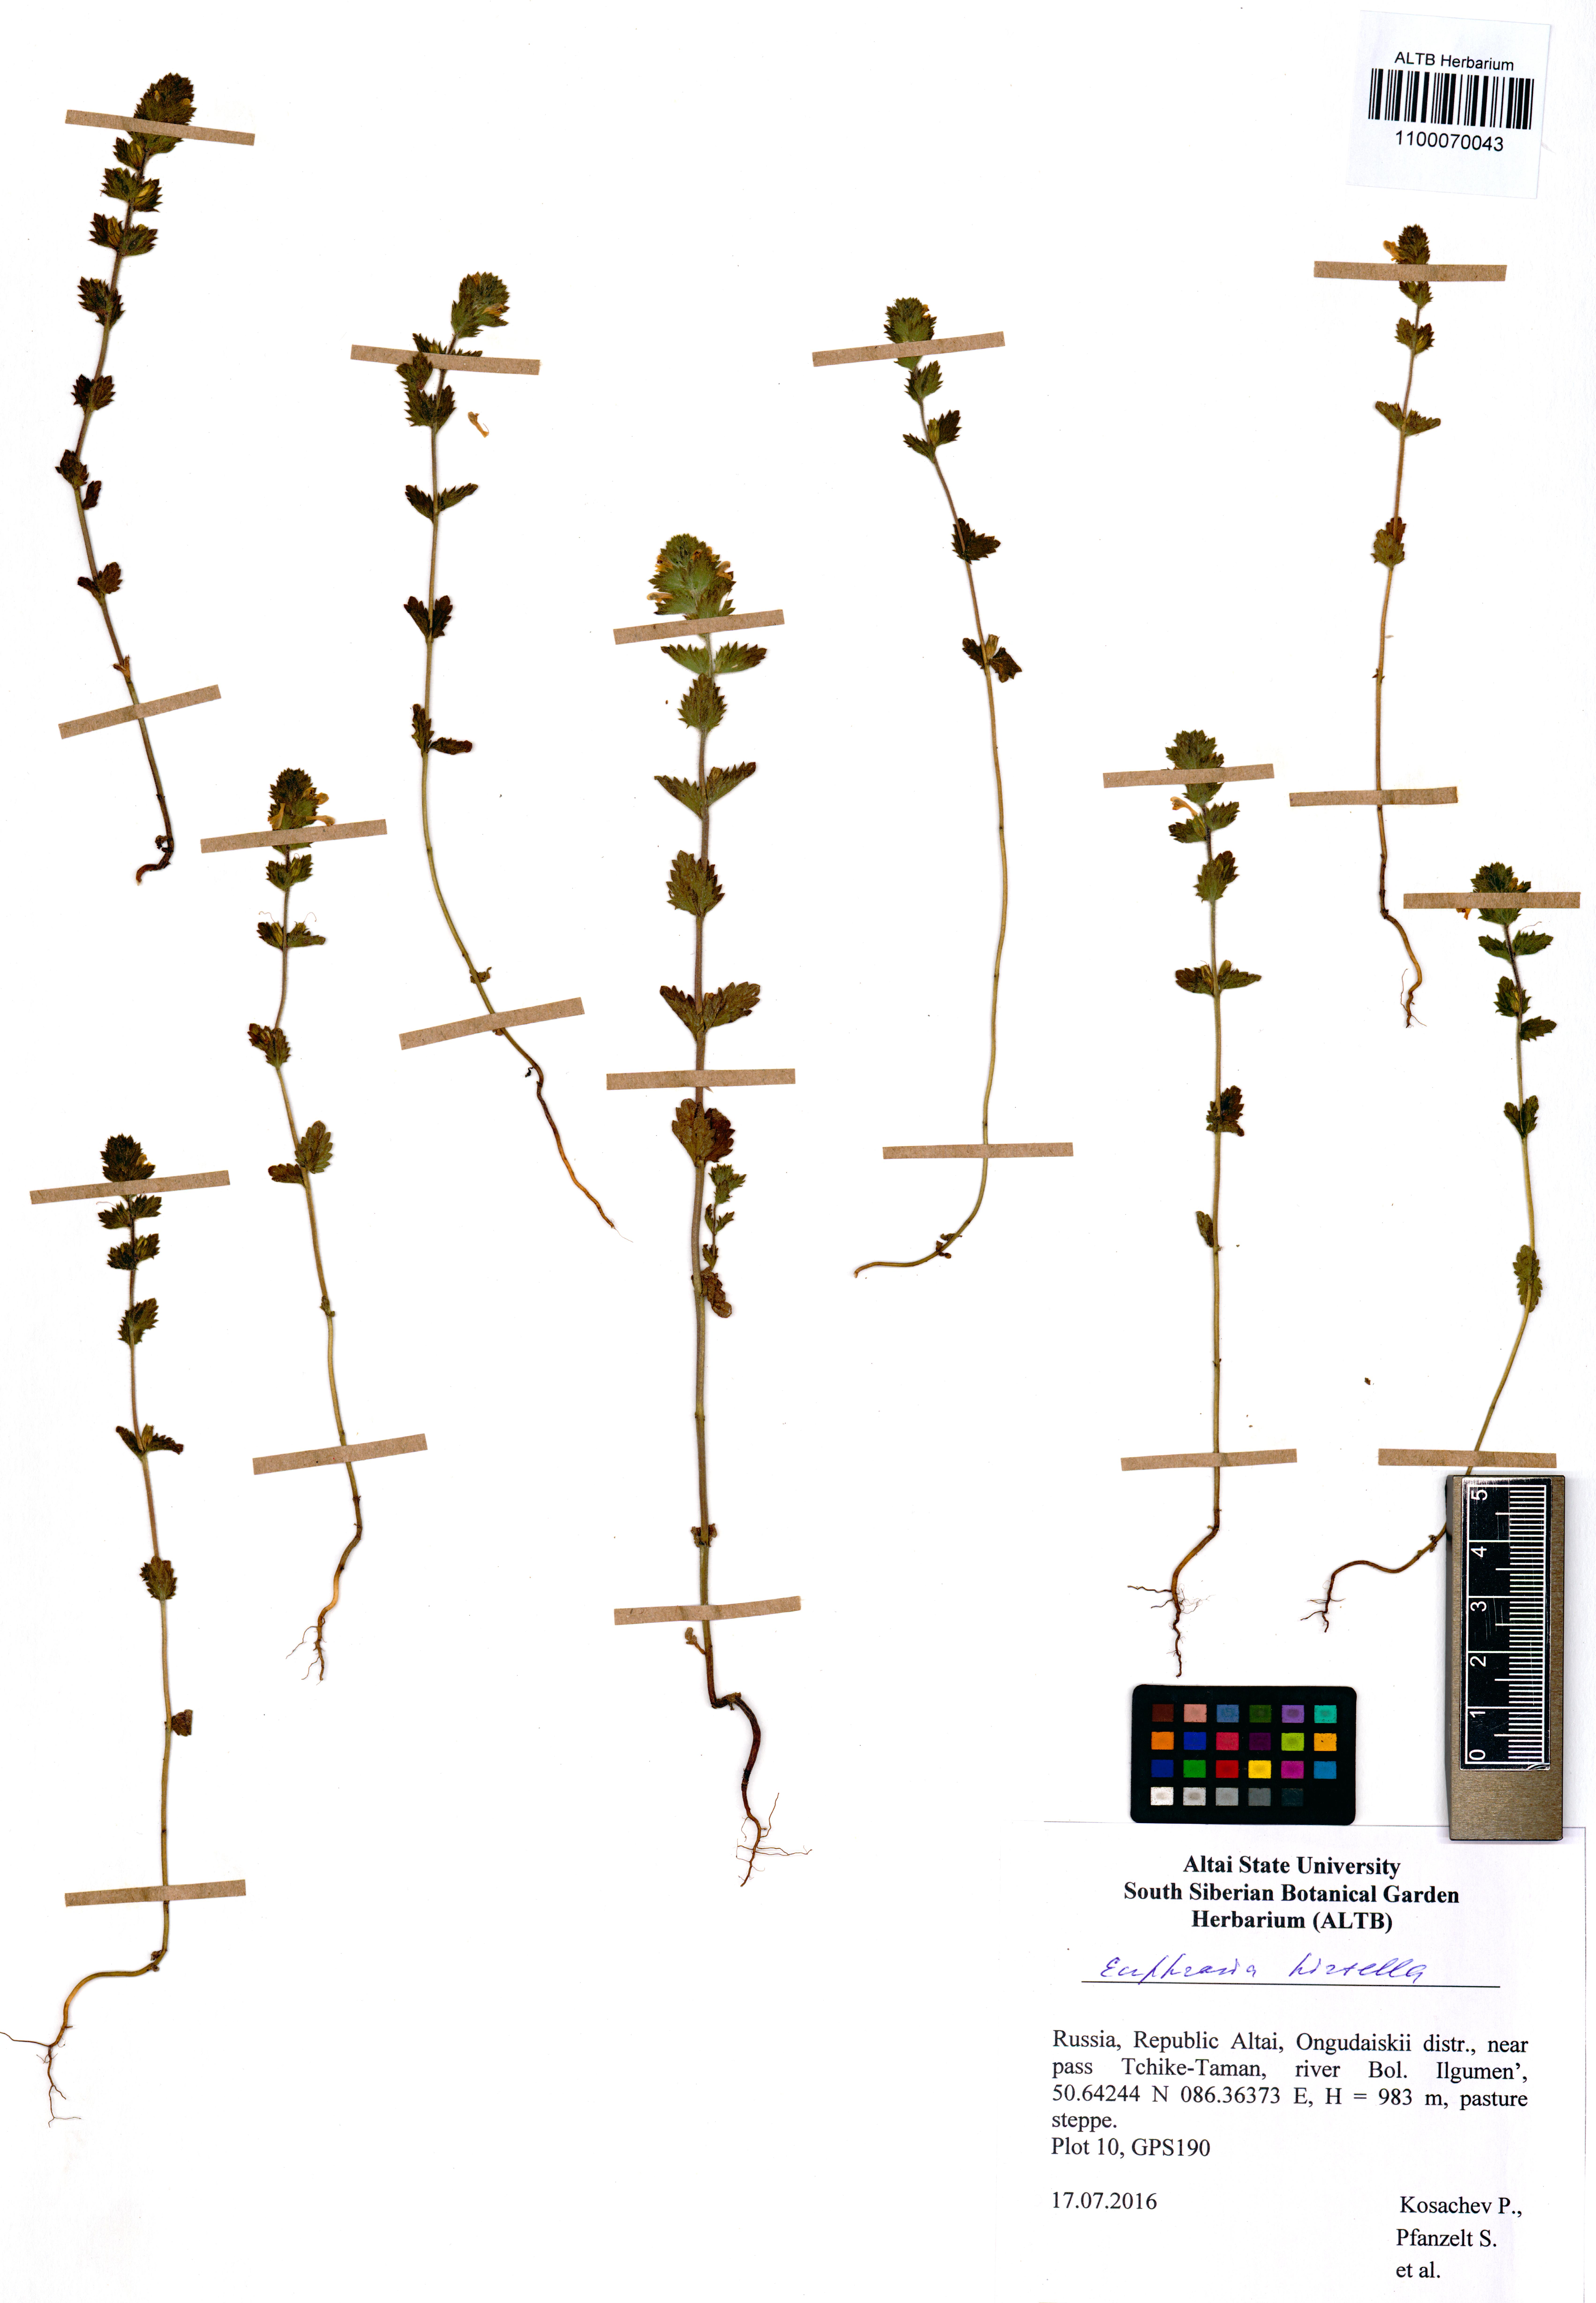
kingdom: Plantae
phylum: Tracheophyta
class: Magnoliopsida
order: Lamiales
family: Orobanchaceae
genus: Euphrasia
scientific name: Euphrasia hirtella
